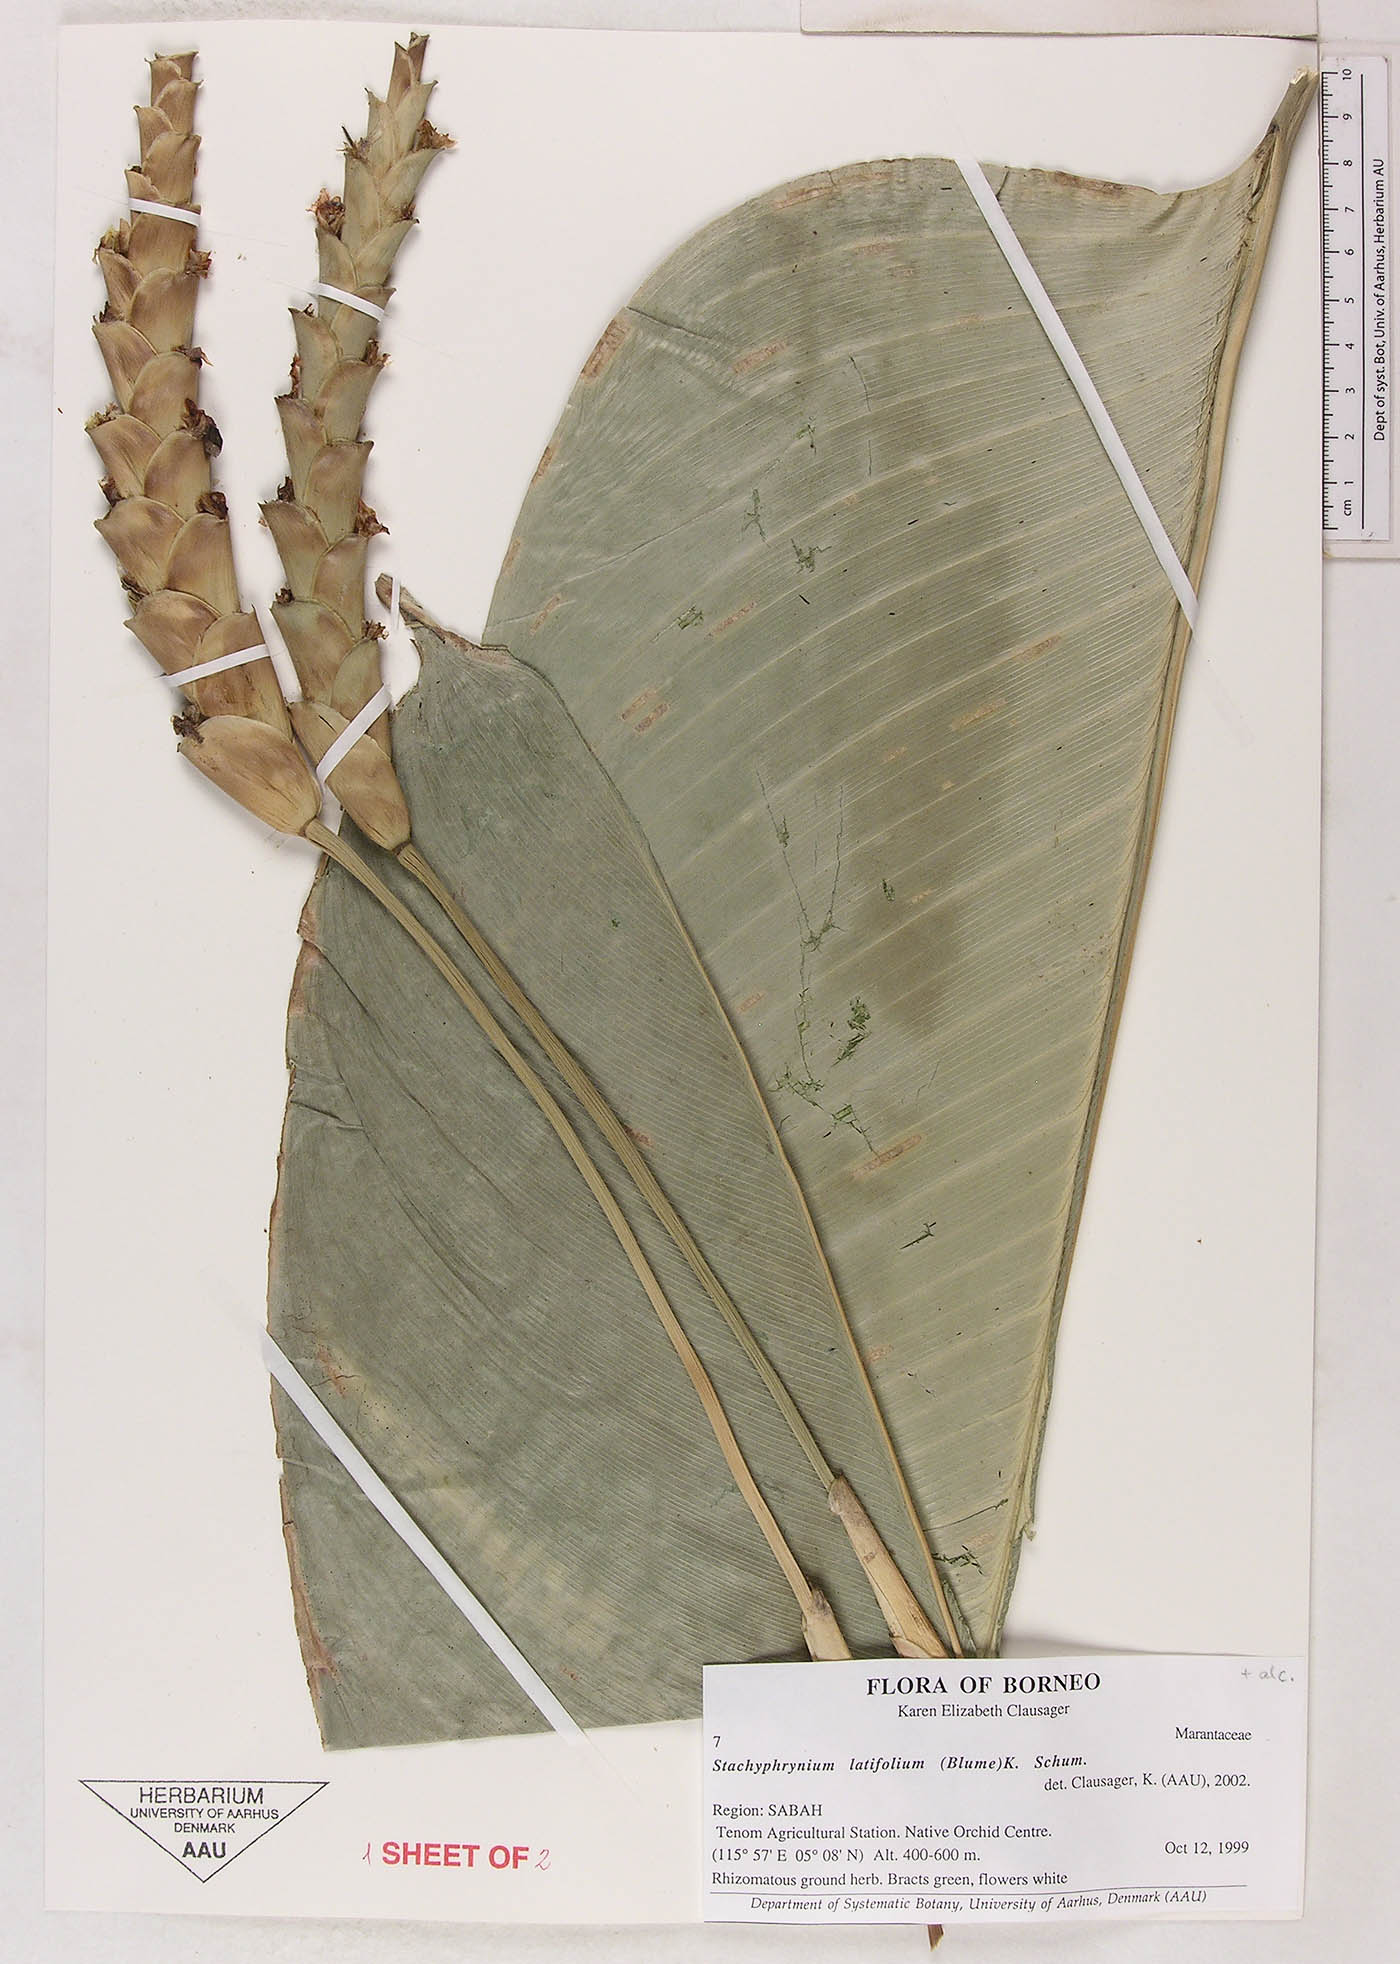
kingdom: Plantae
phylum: Tracheophyta
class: Liliopsida
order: Zingiberales
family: Marantaceae
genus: Stachyphrynium
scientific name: Stachyphrynium latifolium
